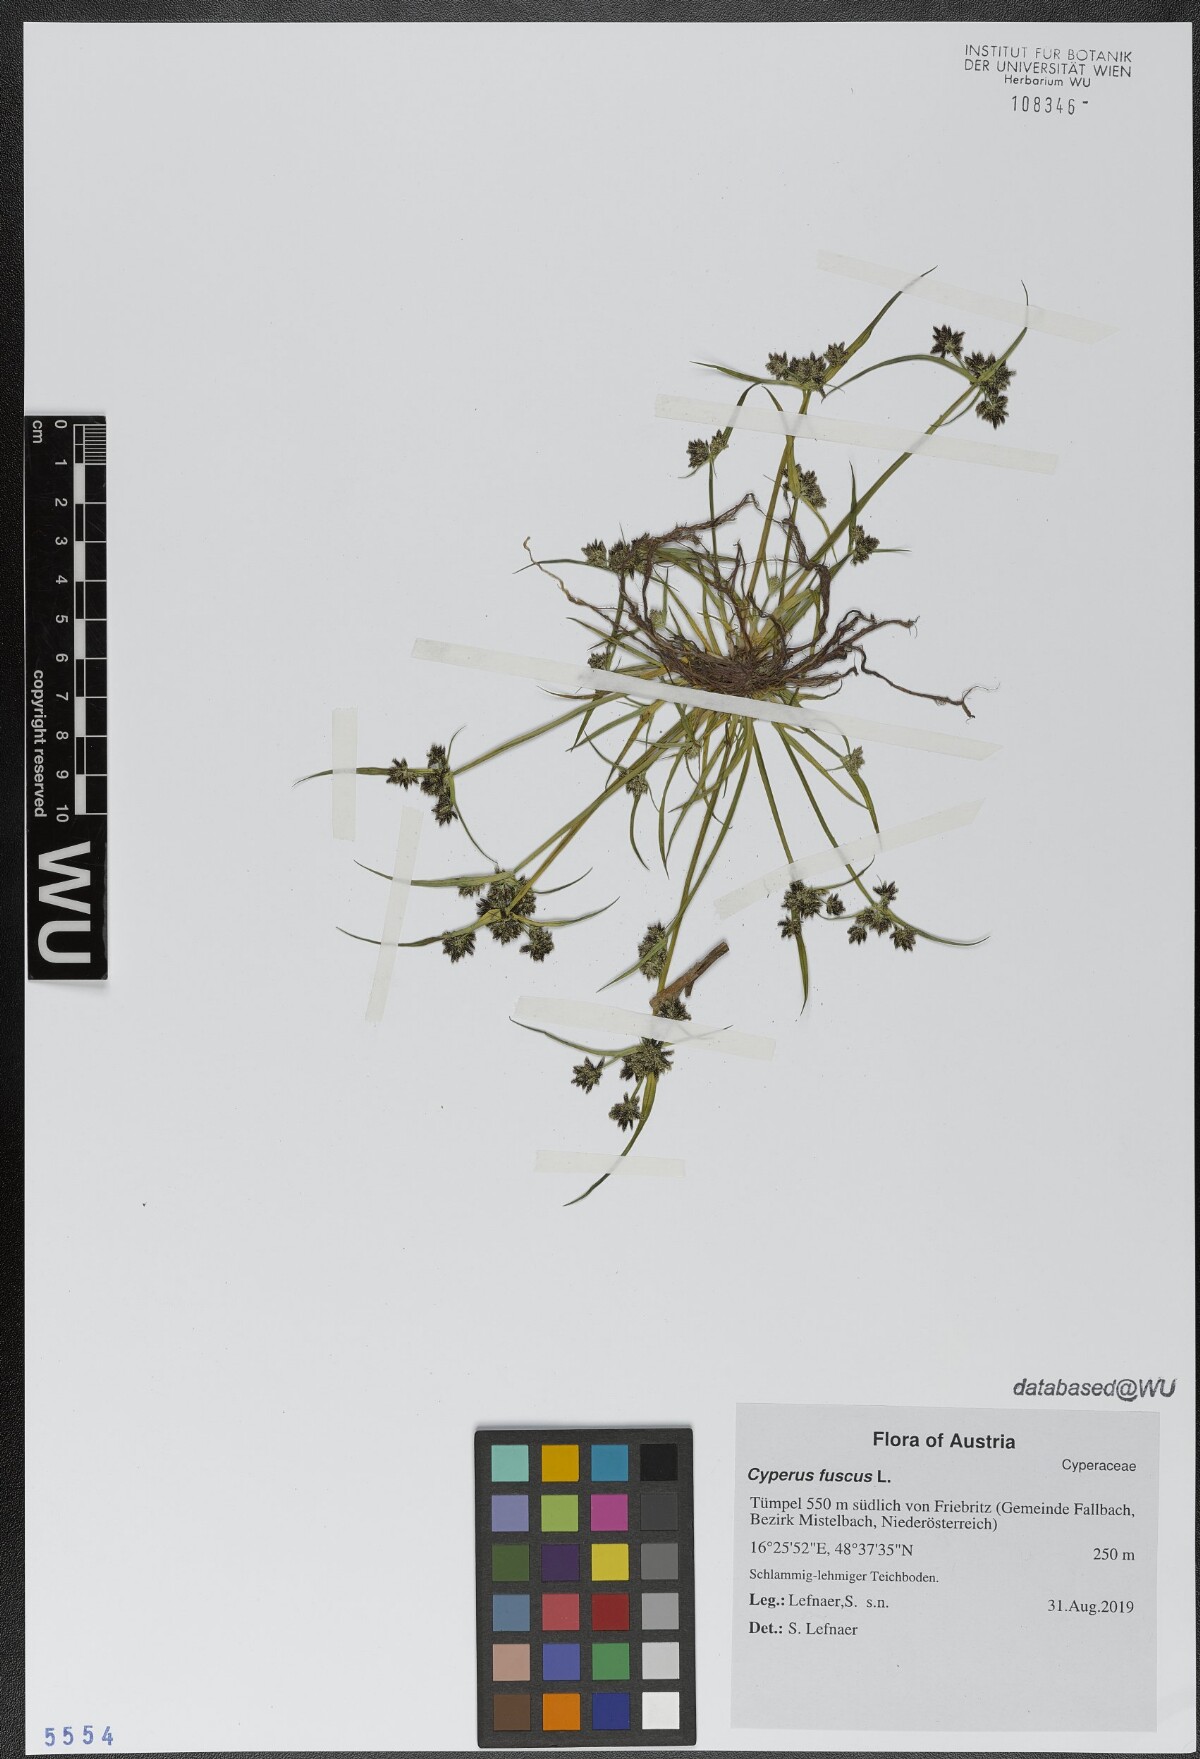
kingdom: Plantae
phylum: Tracheophyta
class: Liliopsida
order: Poales
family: Cyperaceae
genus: Cyperus
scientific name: Cyperus fuscus
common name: Brown galingale
